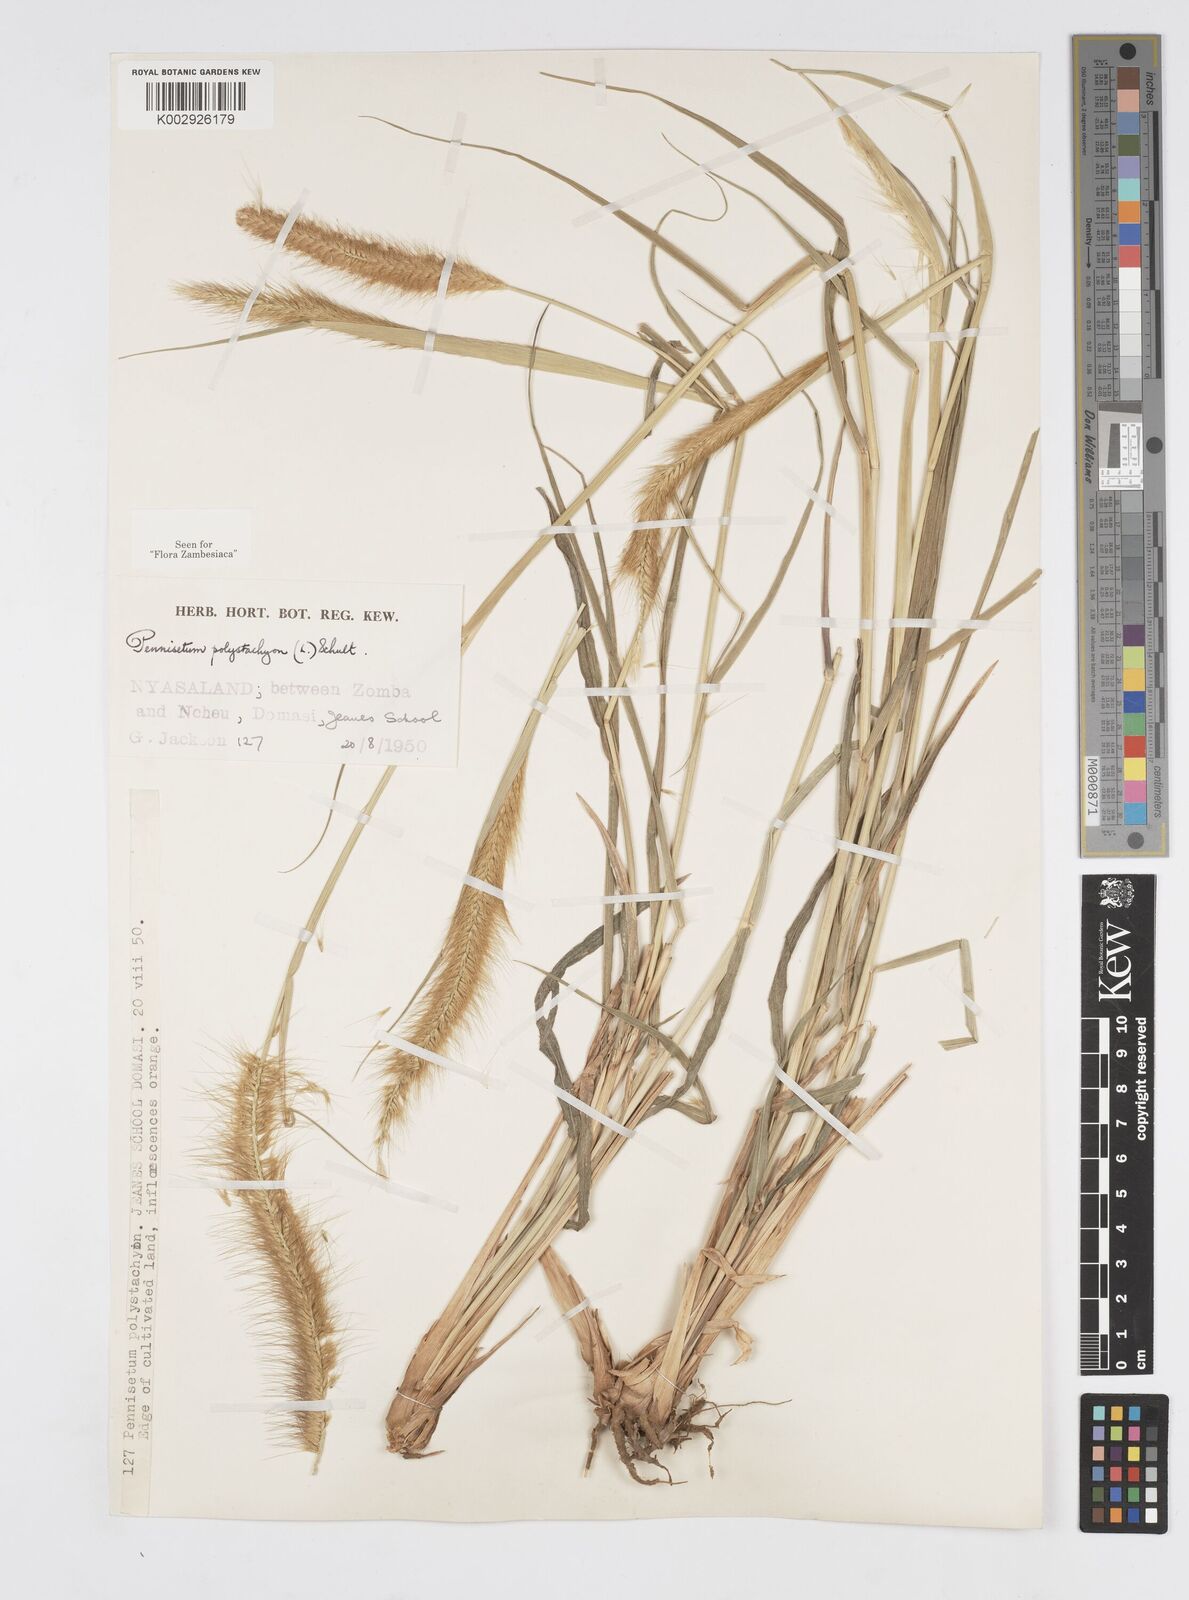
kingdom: Plantae
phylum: Tracheophyta
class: Liliopsida
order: Poales
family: Poaceae
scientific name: Poaceae
